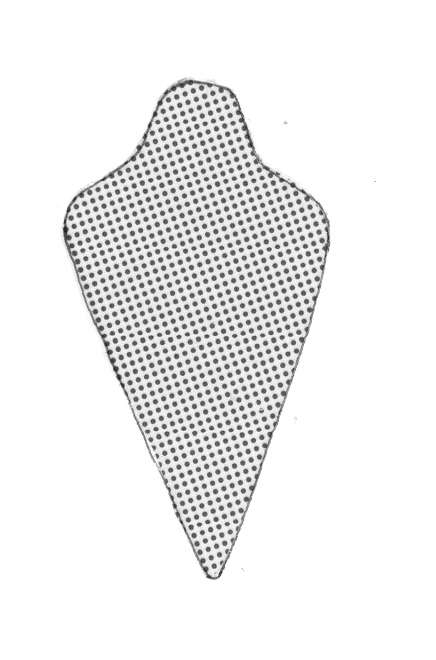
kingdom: Animalia
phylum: Chordata
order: Perciformes
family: Serranidae
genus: Odontanthias
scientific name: Odontanthias caudicinctus
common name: Blackblotch swallowtail
